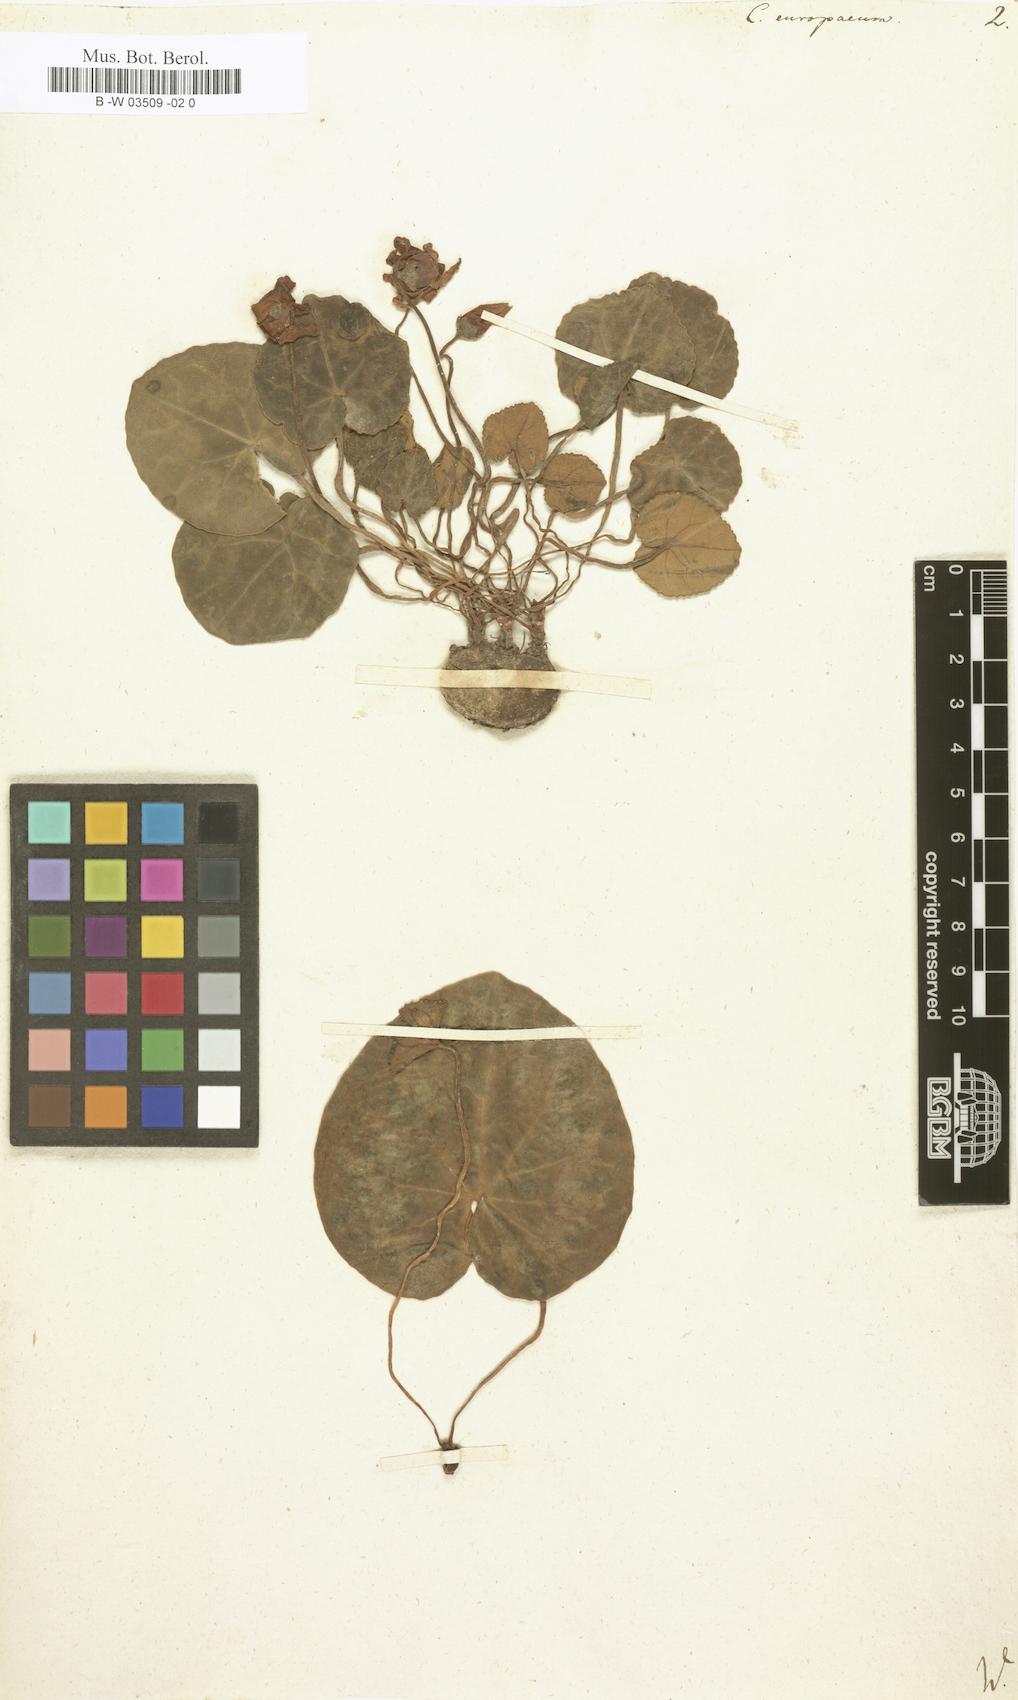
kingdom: Plantae
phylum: Tracheophyta
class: Magnoliopsida
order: Ericales
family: Primulaceae
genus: Cyclamen
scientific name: Cyclamen europaeum
